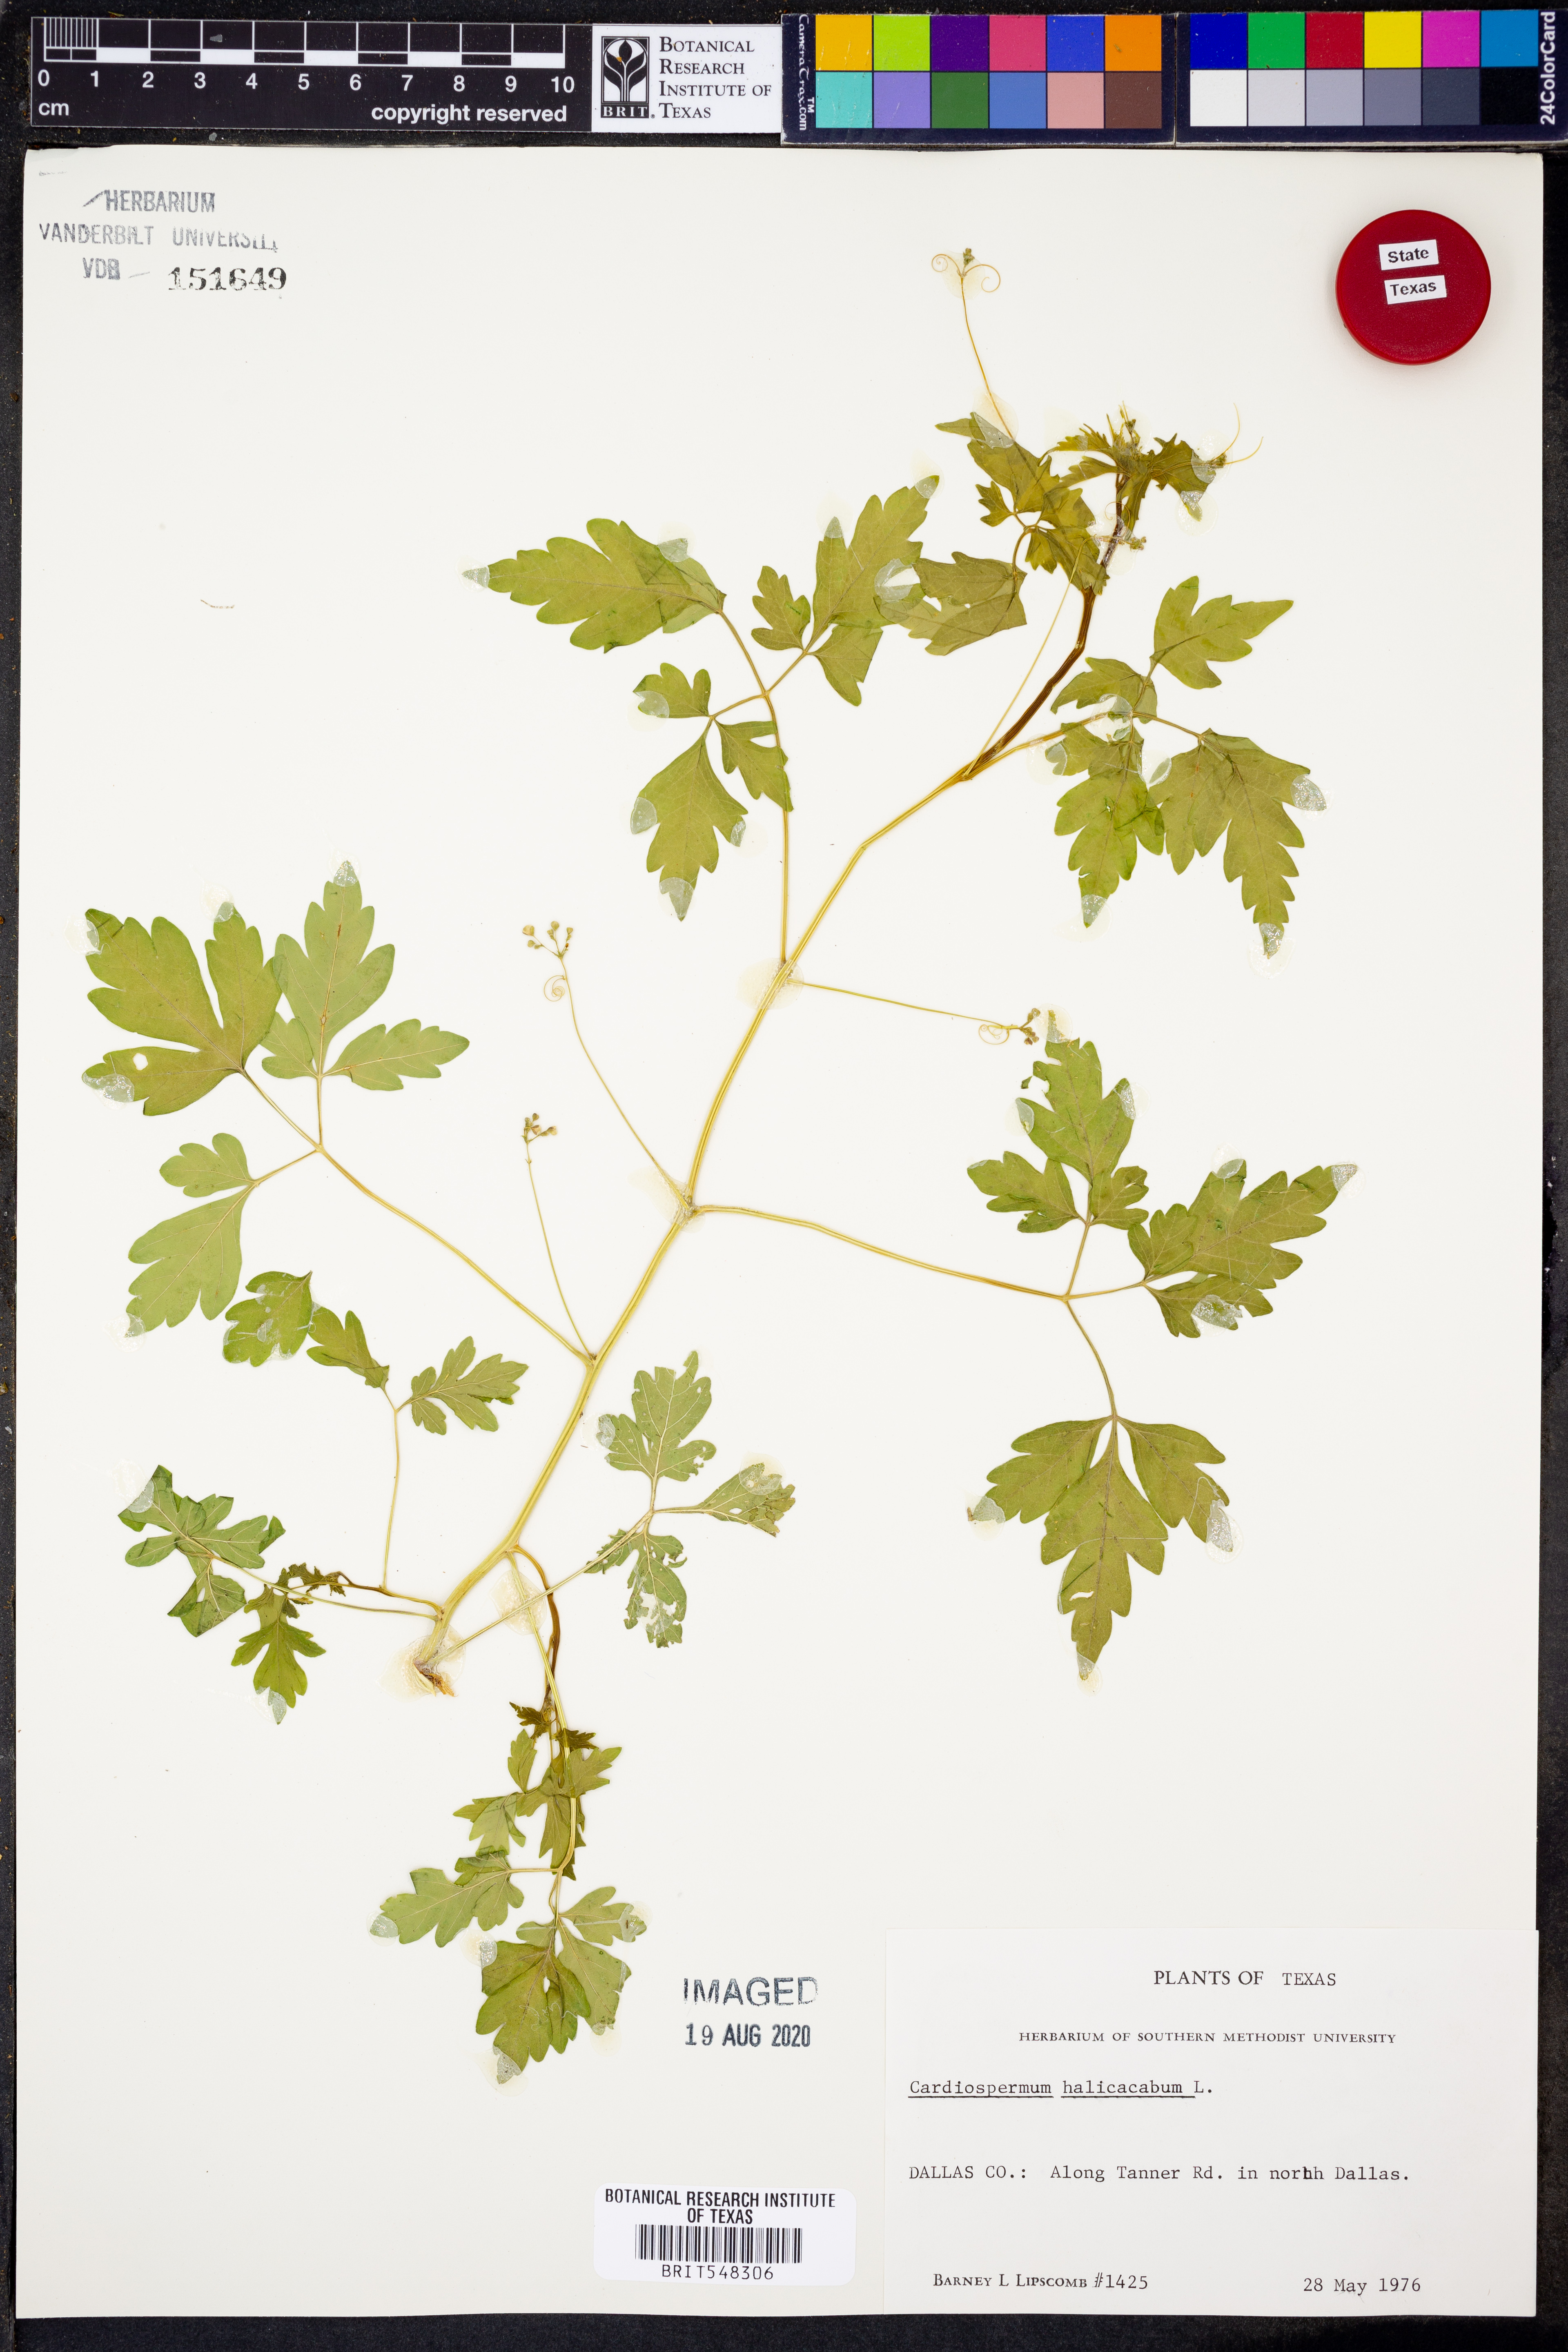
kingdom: Plantae
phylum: Tracheophyta
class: Magnoliopsida
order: Sapindales
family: Sapindaceae
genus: Cardiospermum
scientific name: Cardiospermum halicacabum
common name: Balloon vine
